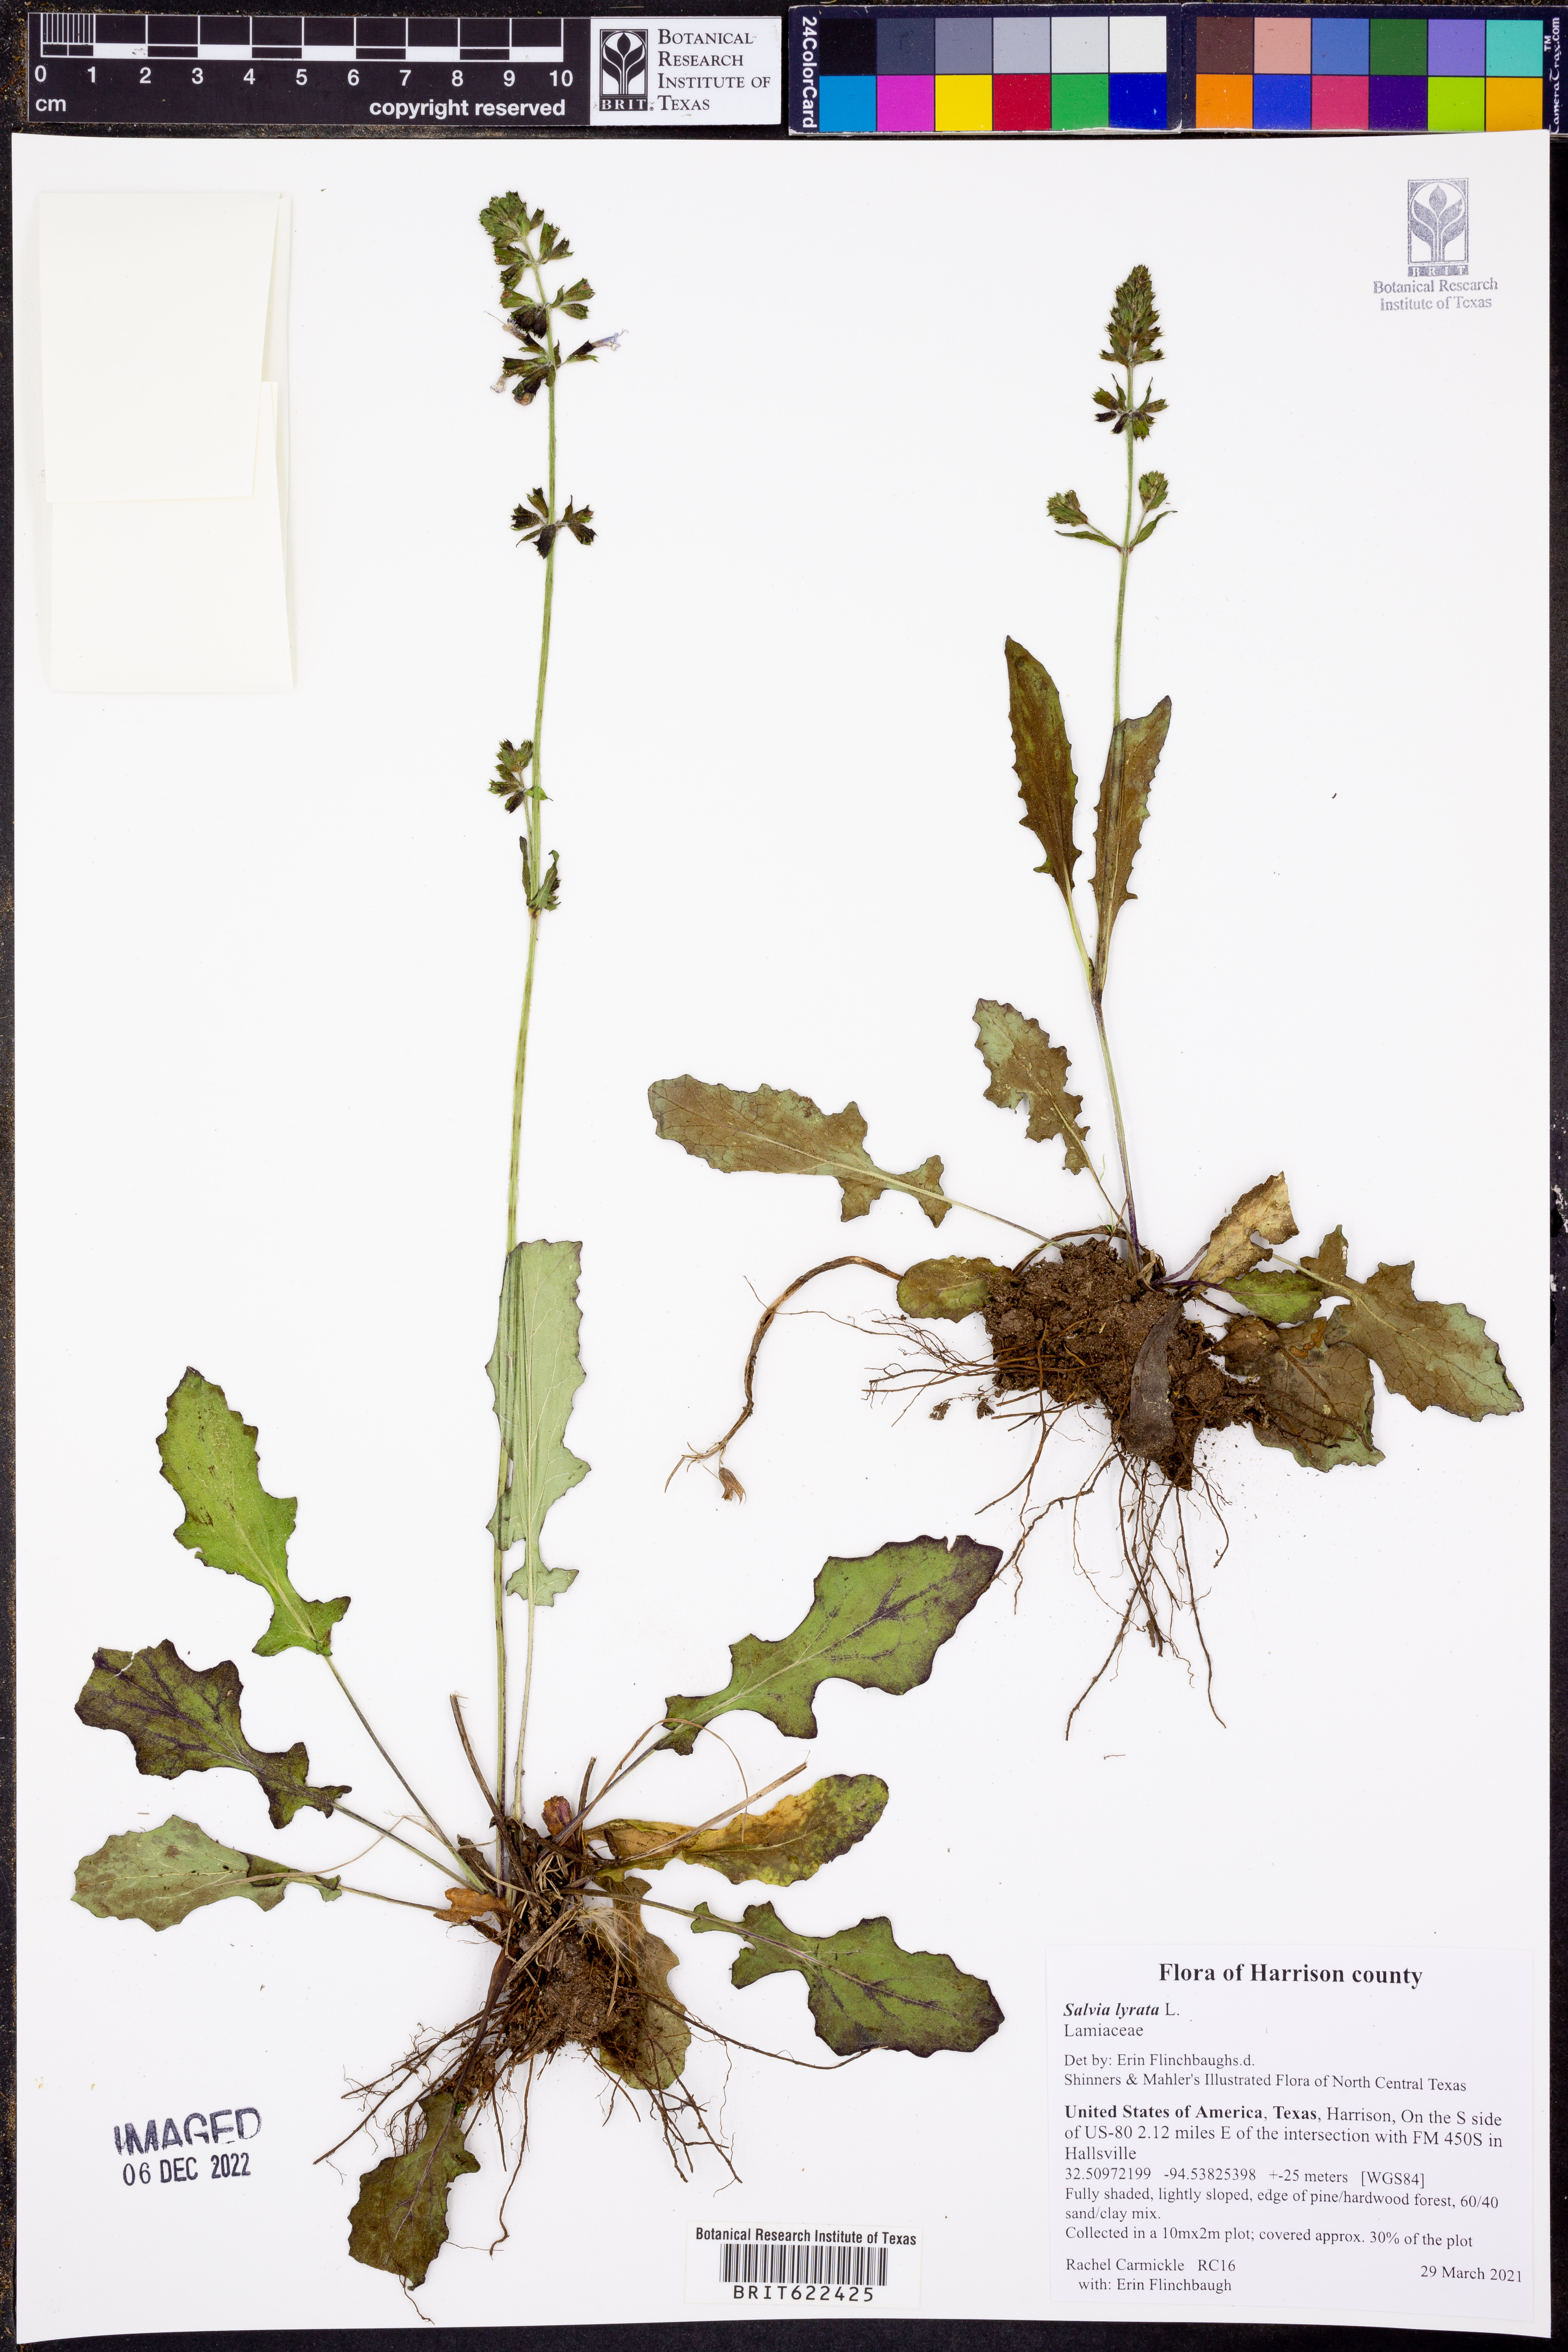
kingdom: Plantae
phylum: Tracheophyta
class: Magnoliopsida
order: Lamiales
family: Lamiaceae
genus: Salvia
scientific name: Salvia lyrata
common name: Cancerweed
